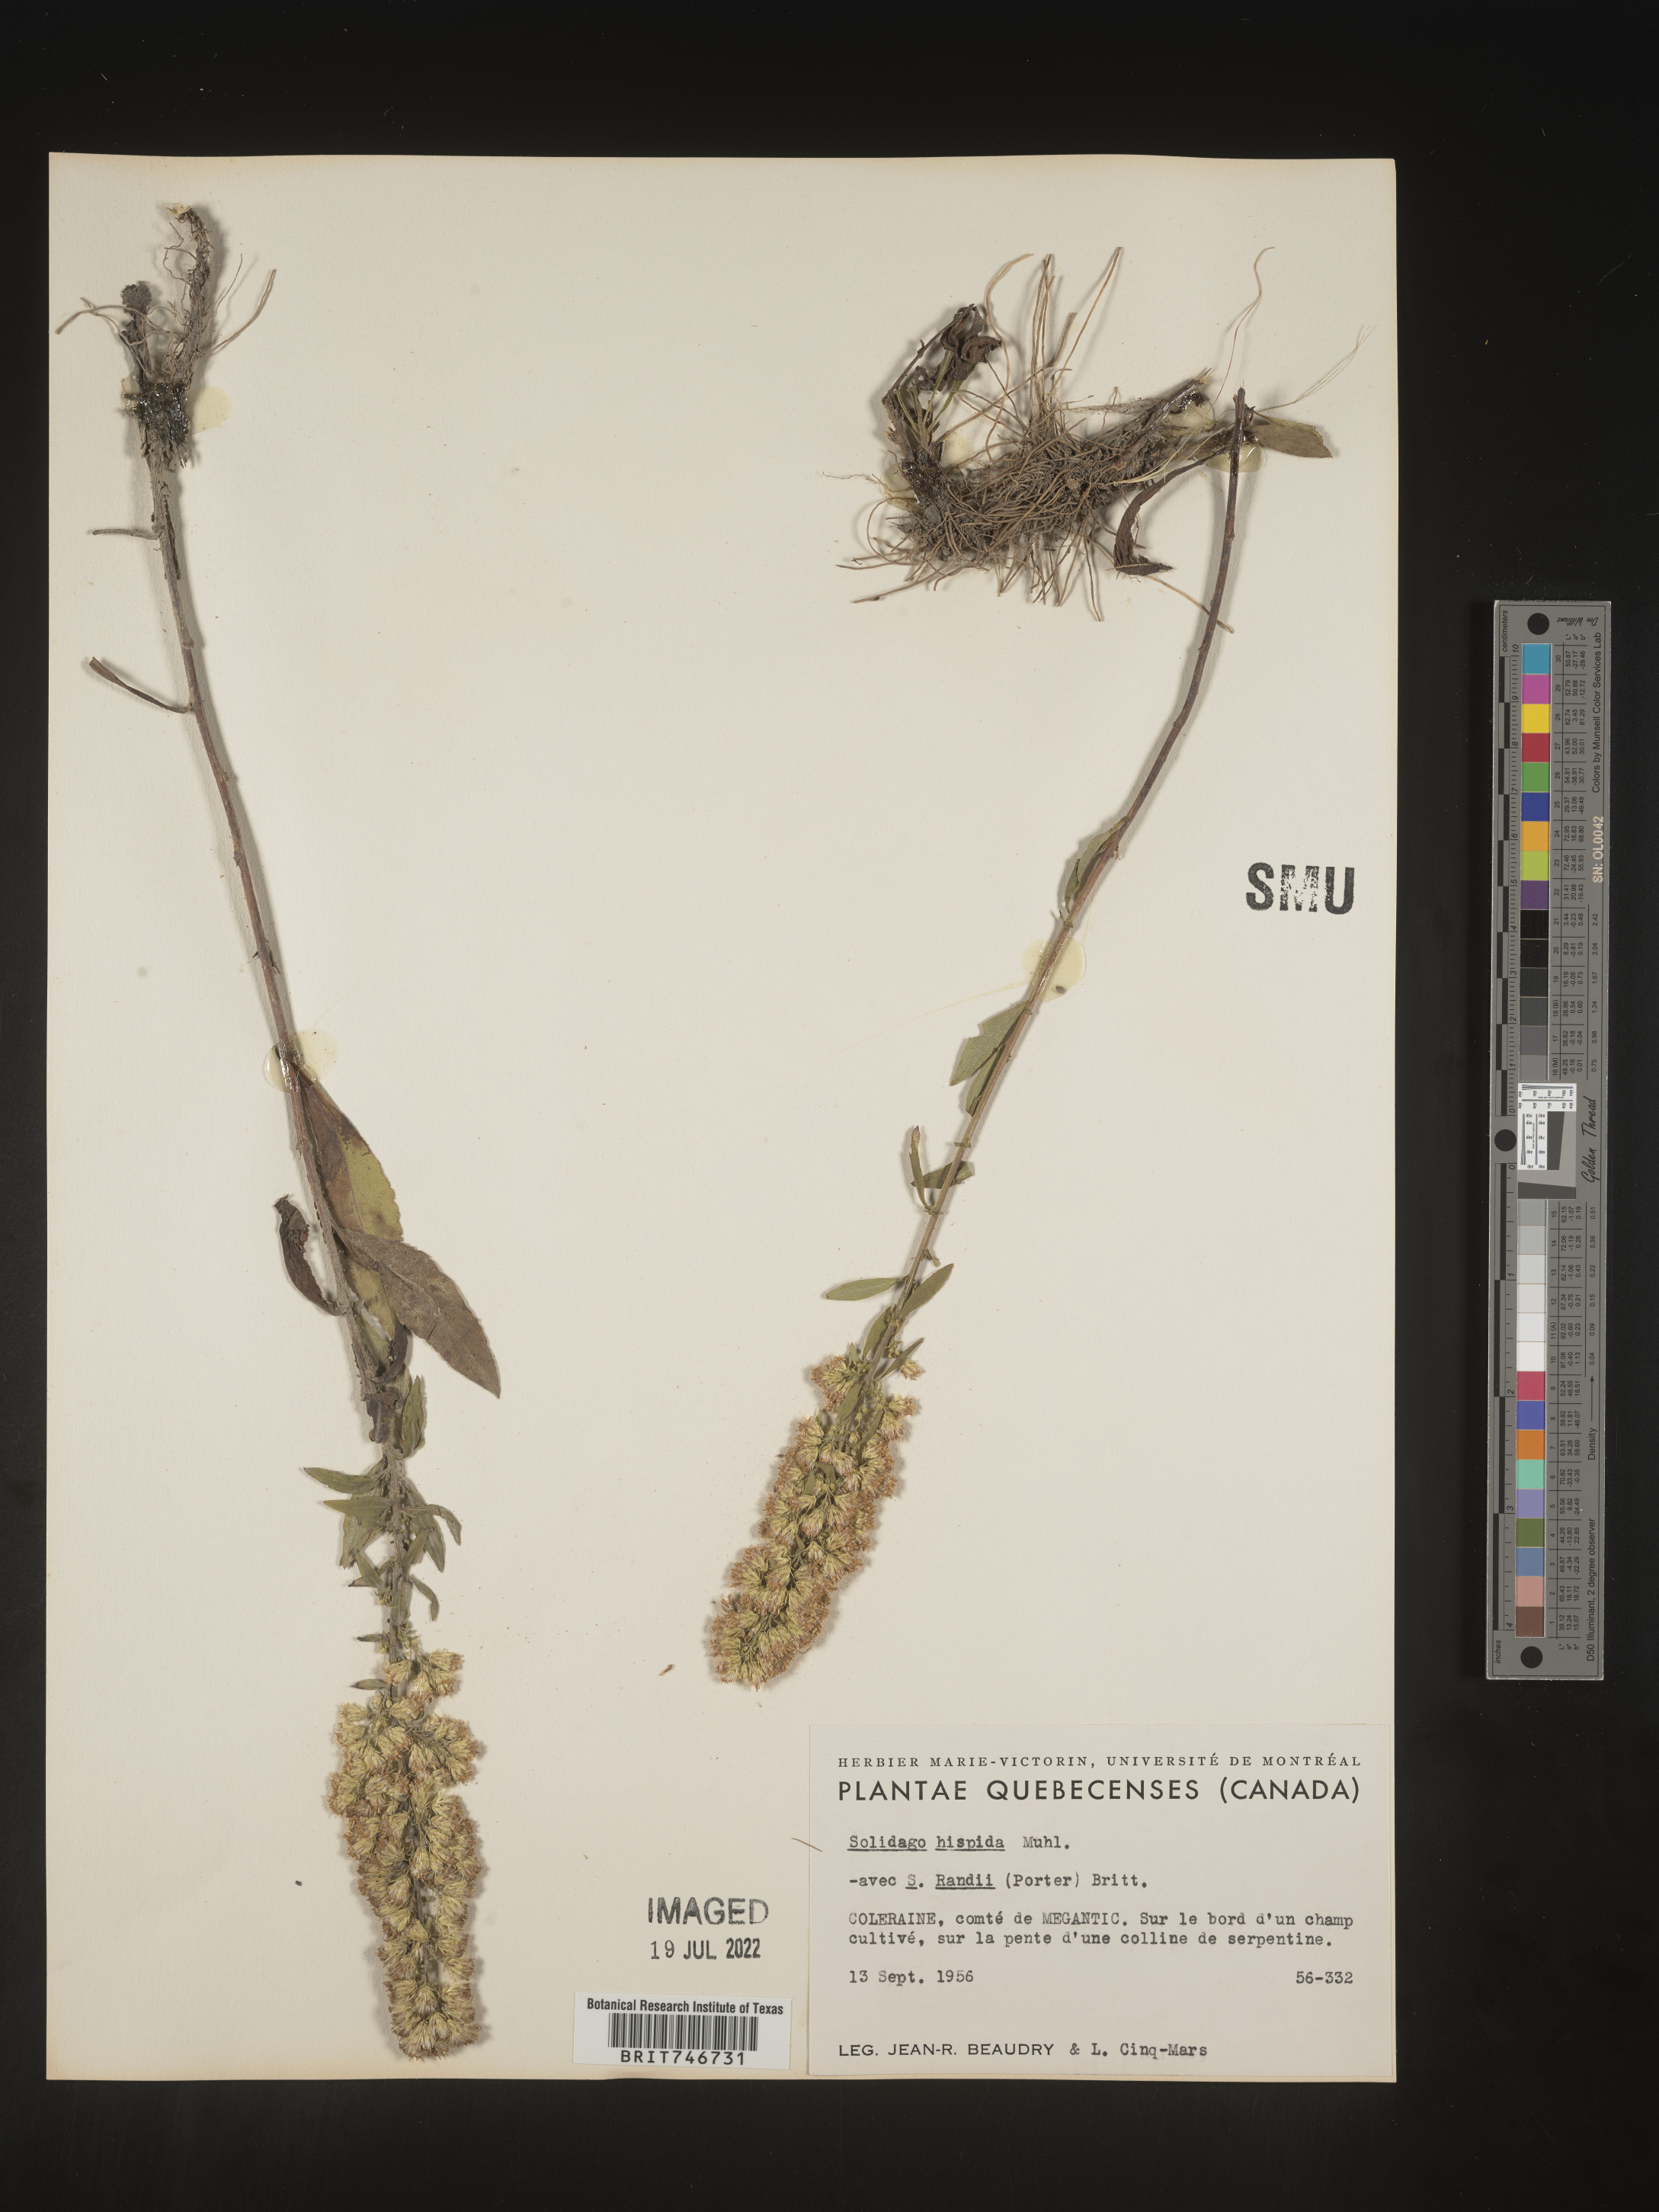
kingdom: Plantae
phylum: Tracheophyta
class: Magnoliopsida
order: Asterales
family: Asteraceae
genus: Solidago
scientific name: Solidago hispida
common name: Hairy goldenrod
